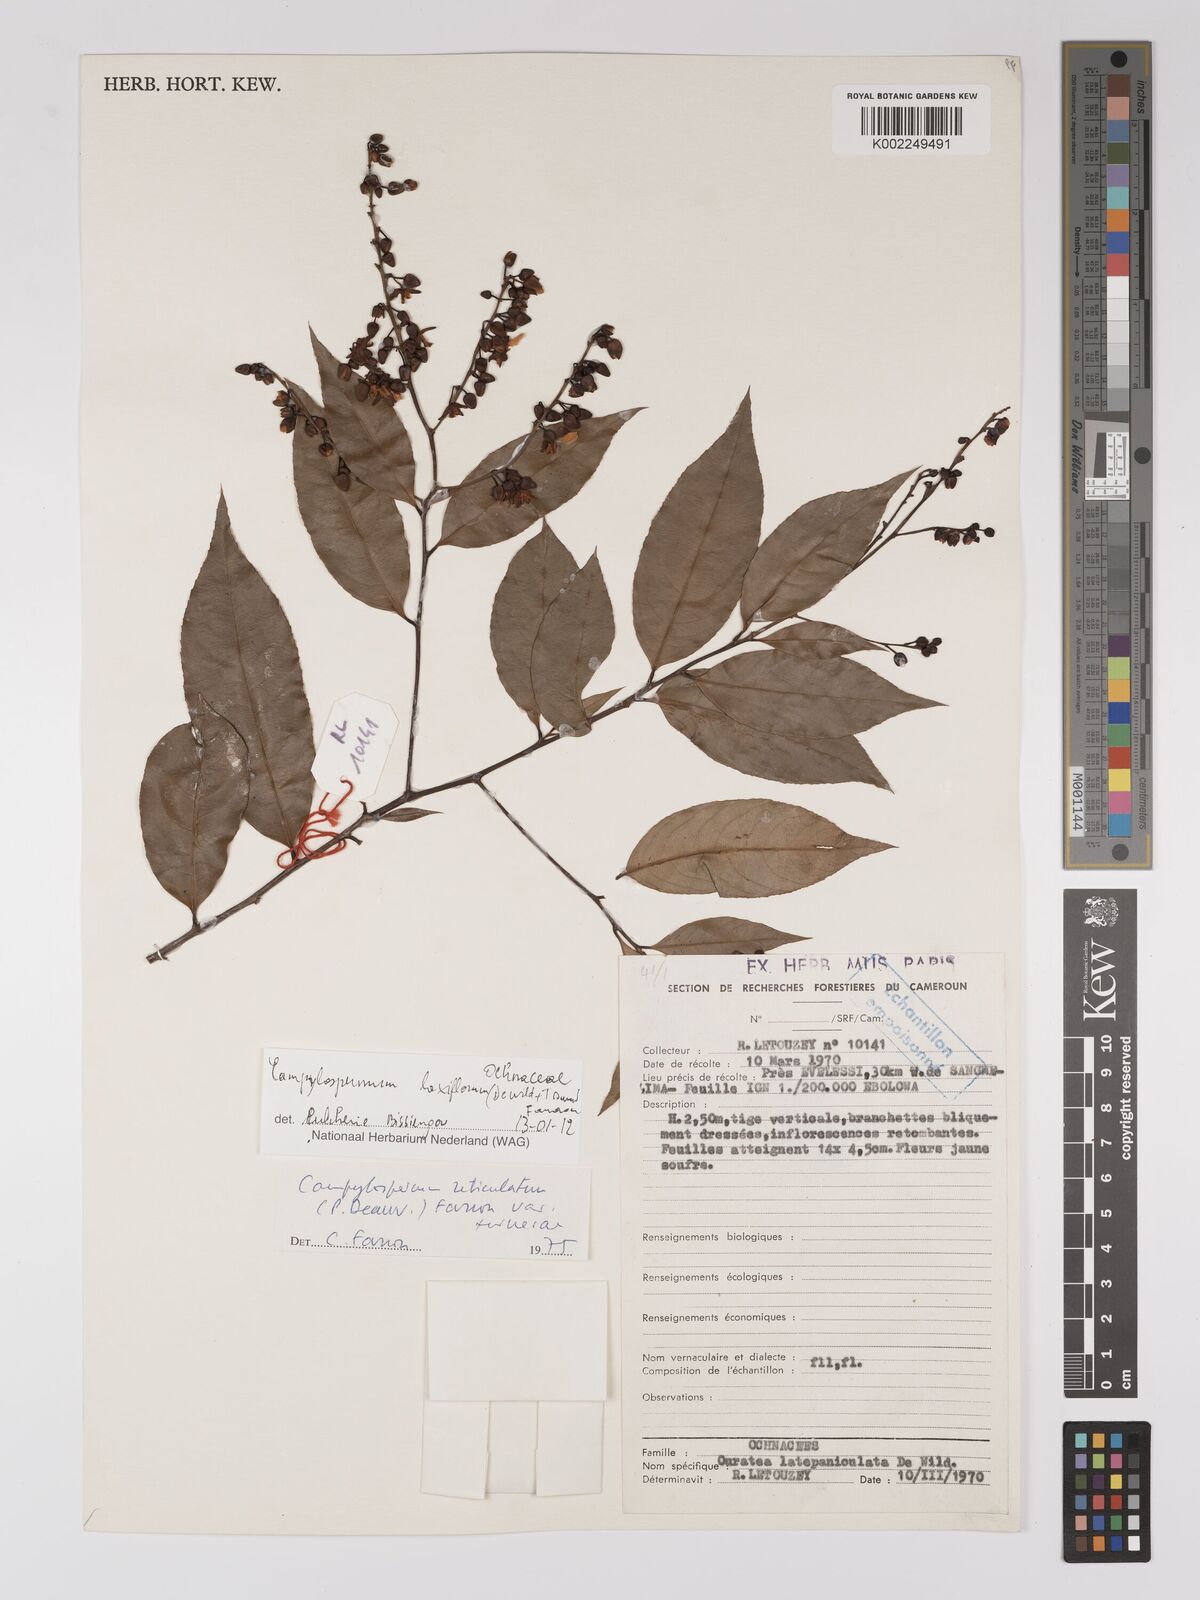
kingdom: Plantae
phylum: Tracheophyta
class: Magnoliopsida
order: Malpighiales
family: Ochnaceae
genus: Campylospermum
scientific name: Campylospermum laxiflorum
